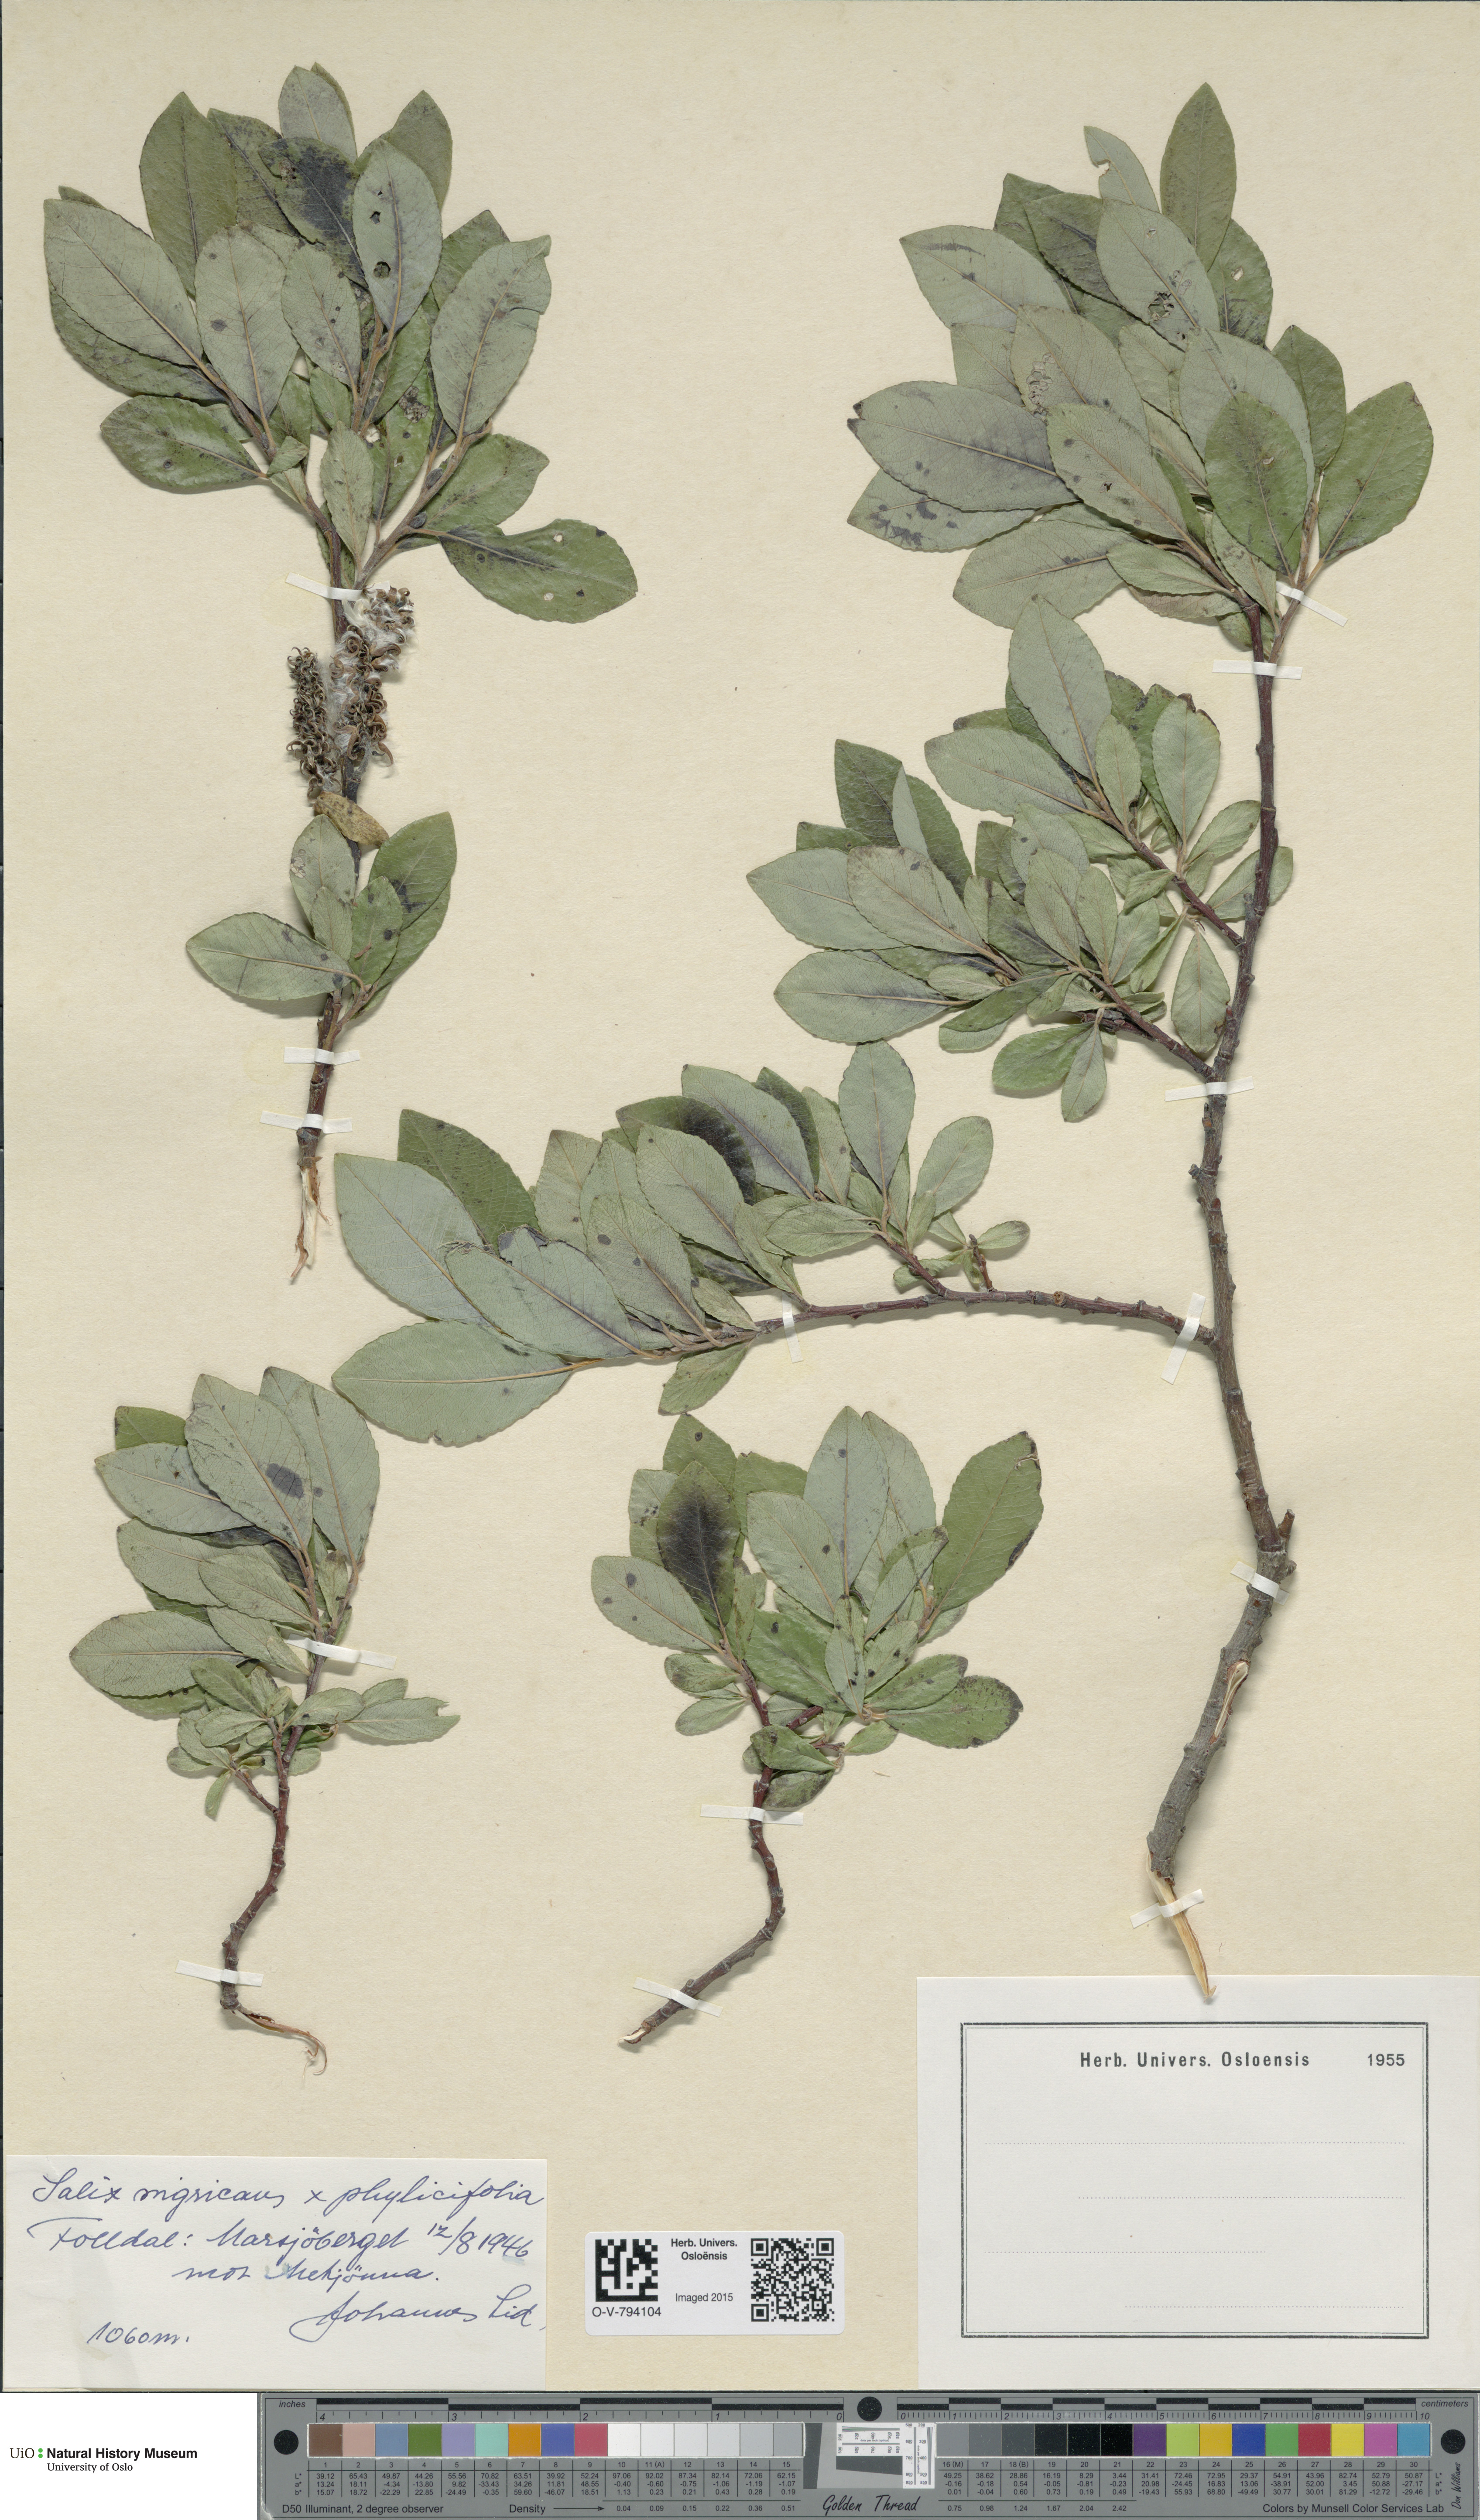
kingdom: Plantae
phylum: Tracheophyta
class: Magnoliopsida
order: Malpighiales
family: Salicaceae
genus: Salix
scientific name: Salix
